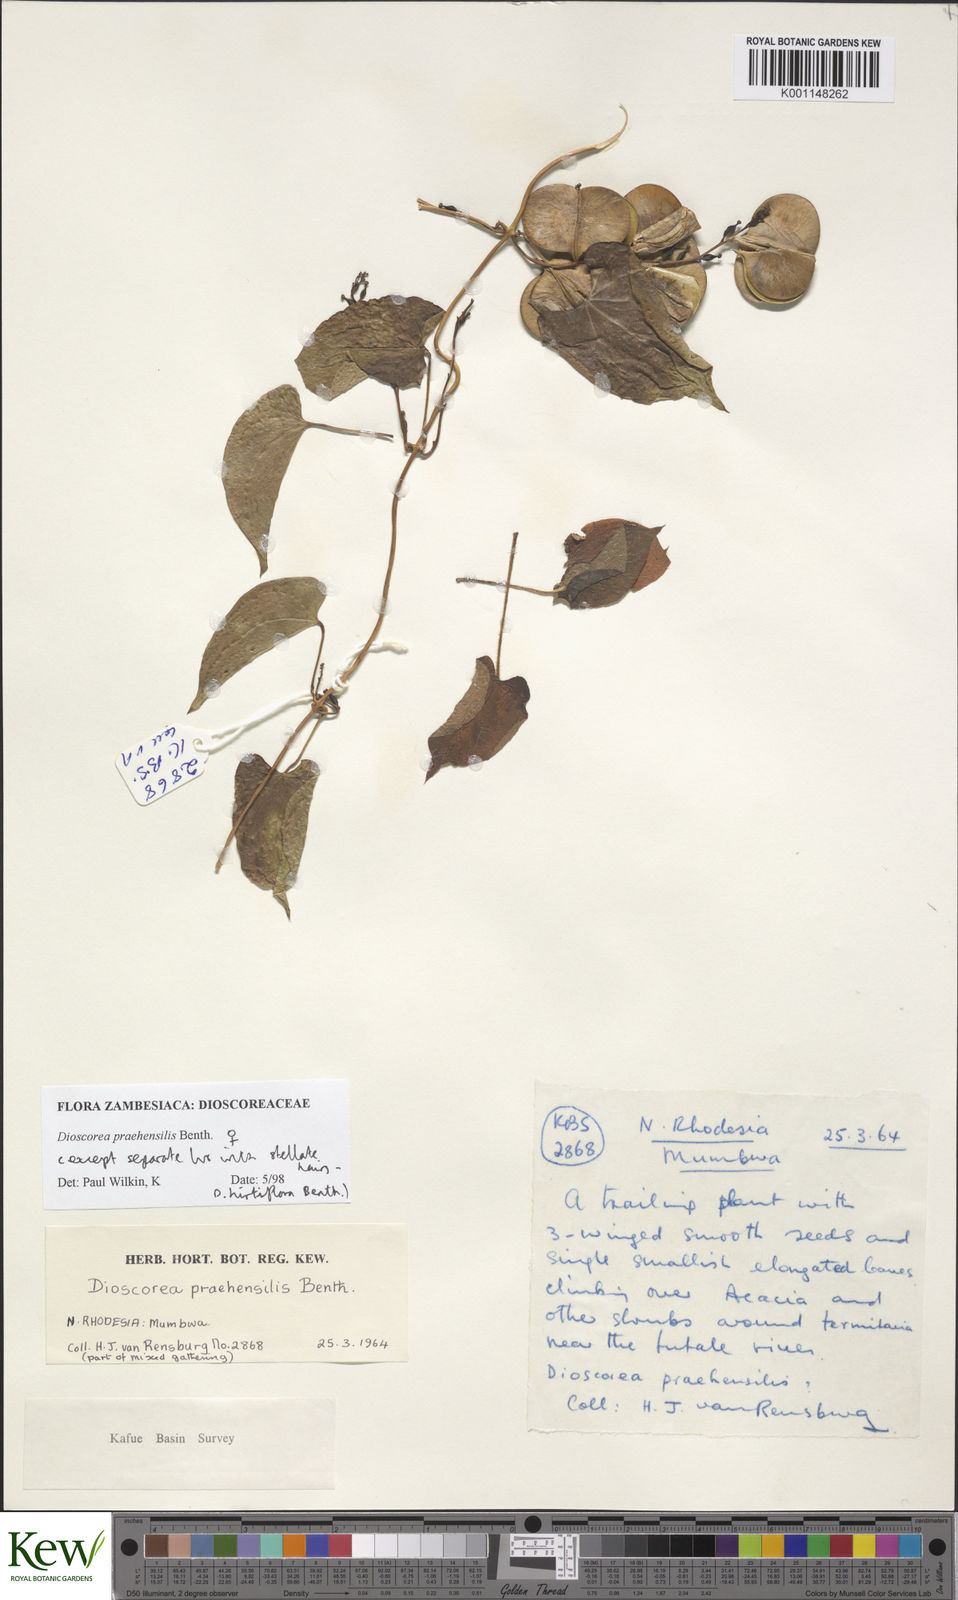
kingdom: Plantae
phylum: Tracheophyta
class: Liliopsida
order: Dioscoreales
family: Dioscoreaceae
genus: Dioscorea
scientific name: Dioscorea praehensilis
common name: Bush yam
